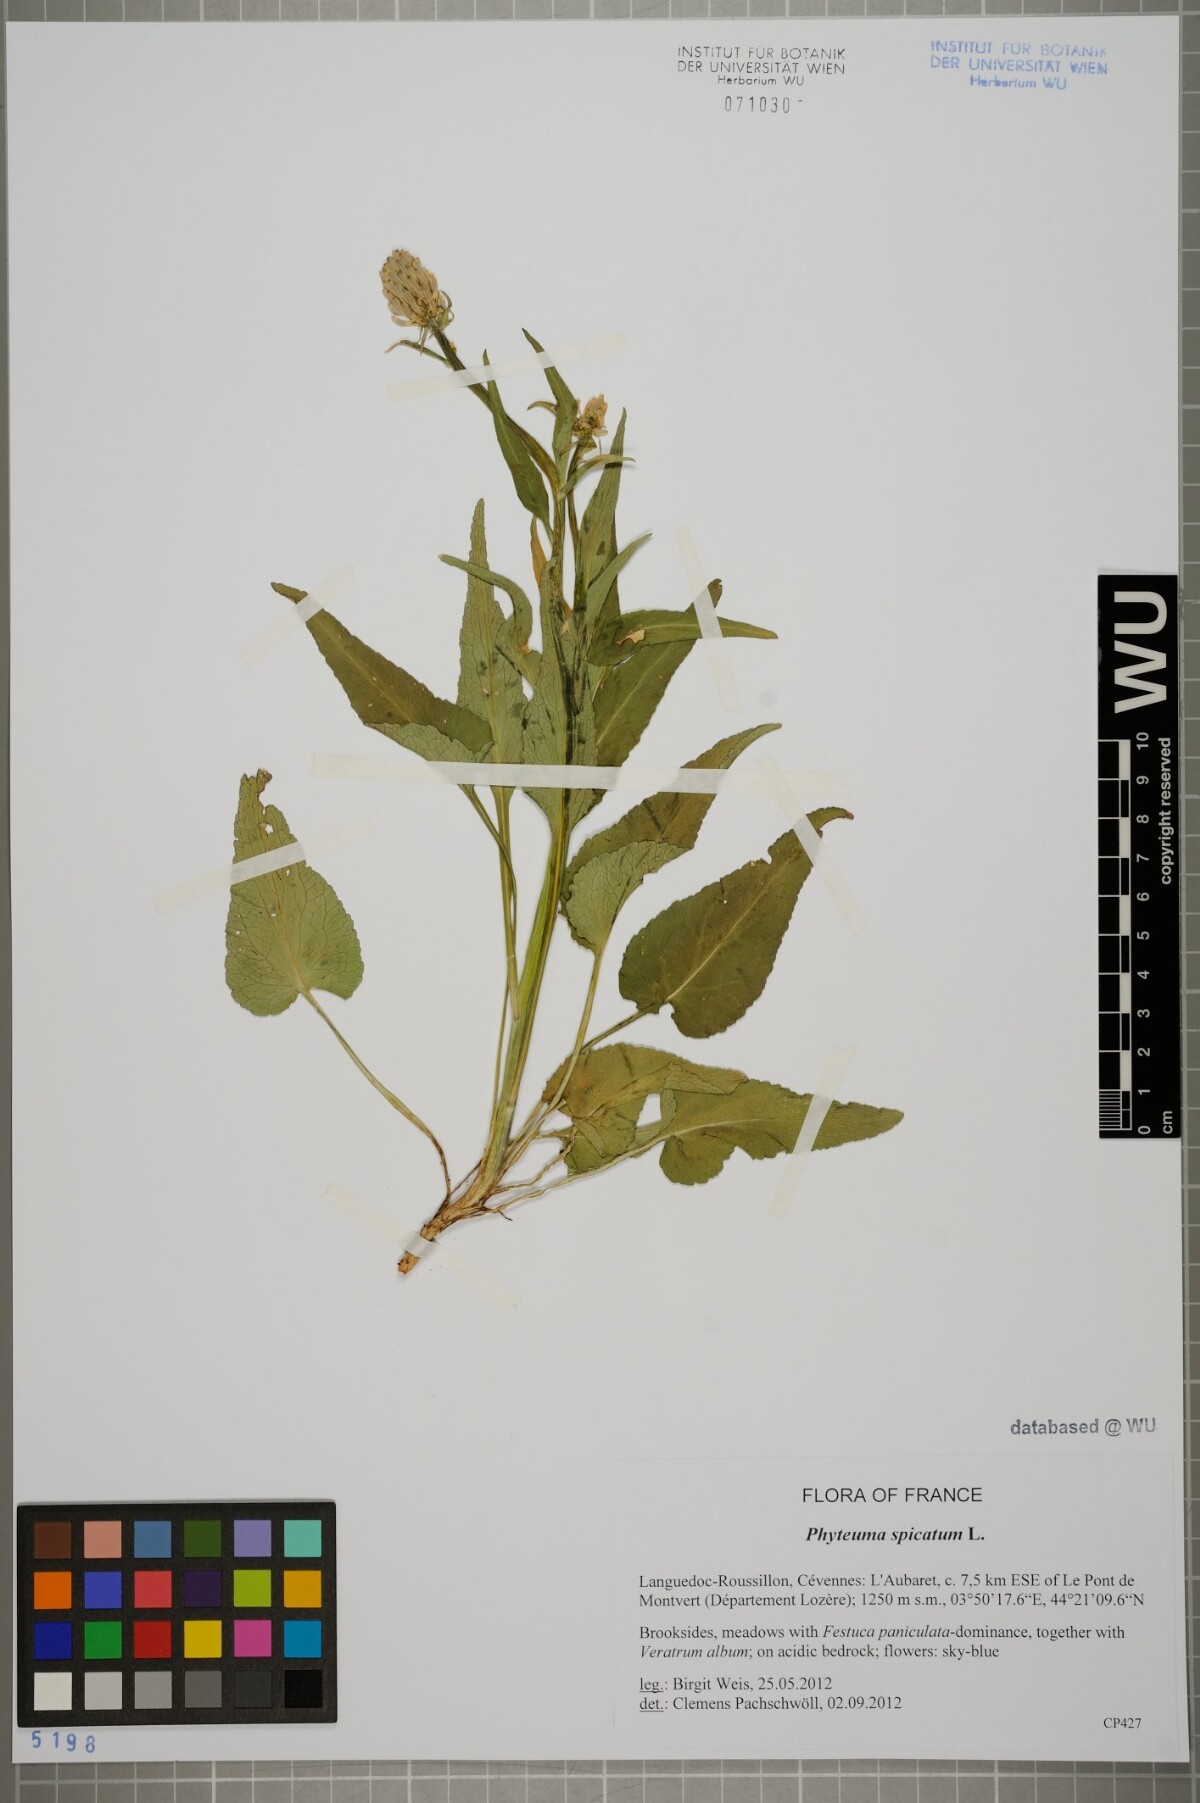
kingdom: Plantae
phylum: Tracheophyta
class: Magnoliopsida
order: Asterales
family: Campanulaceae
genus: Phyteuma
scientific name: Phyteuma spicatum
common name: Spiked rampion
